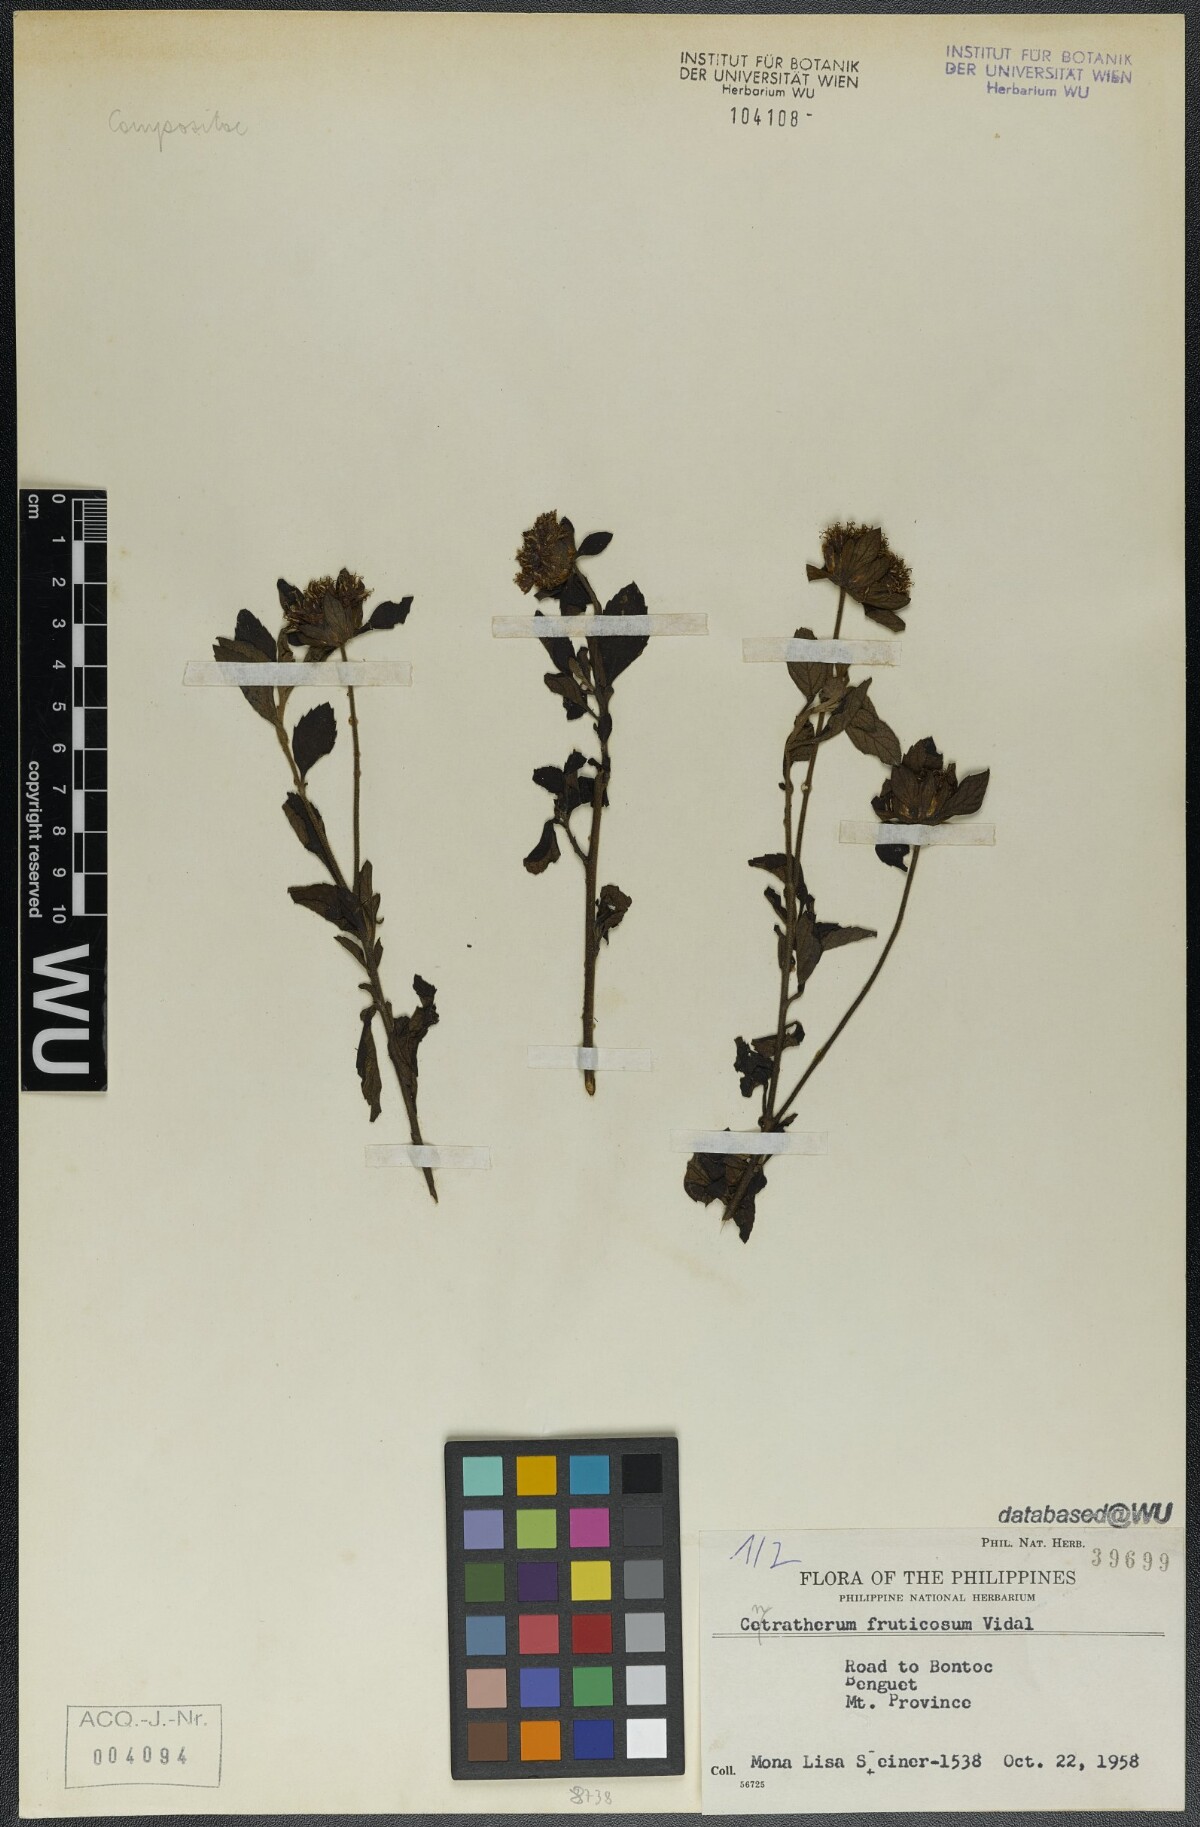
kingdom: Plantae
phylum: Tracheophyta
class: Magnoliopsida
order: Asterales
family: Asteraceae
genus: Centratherum
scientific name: Centratherum punctatum
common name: Larkdaisy
